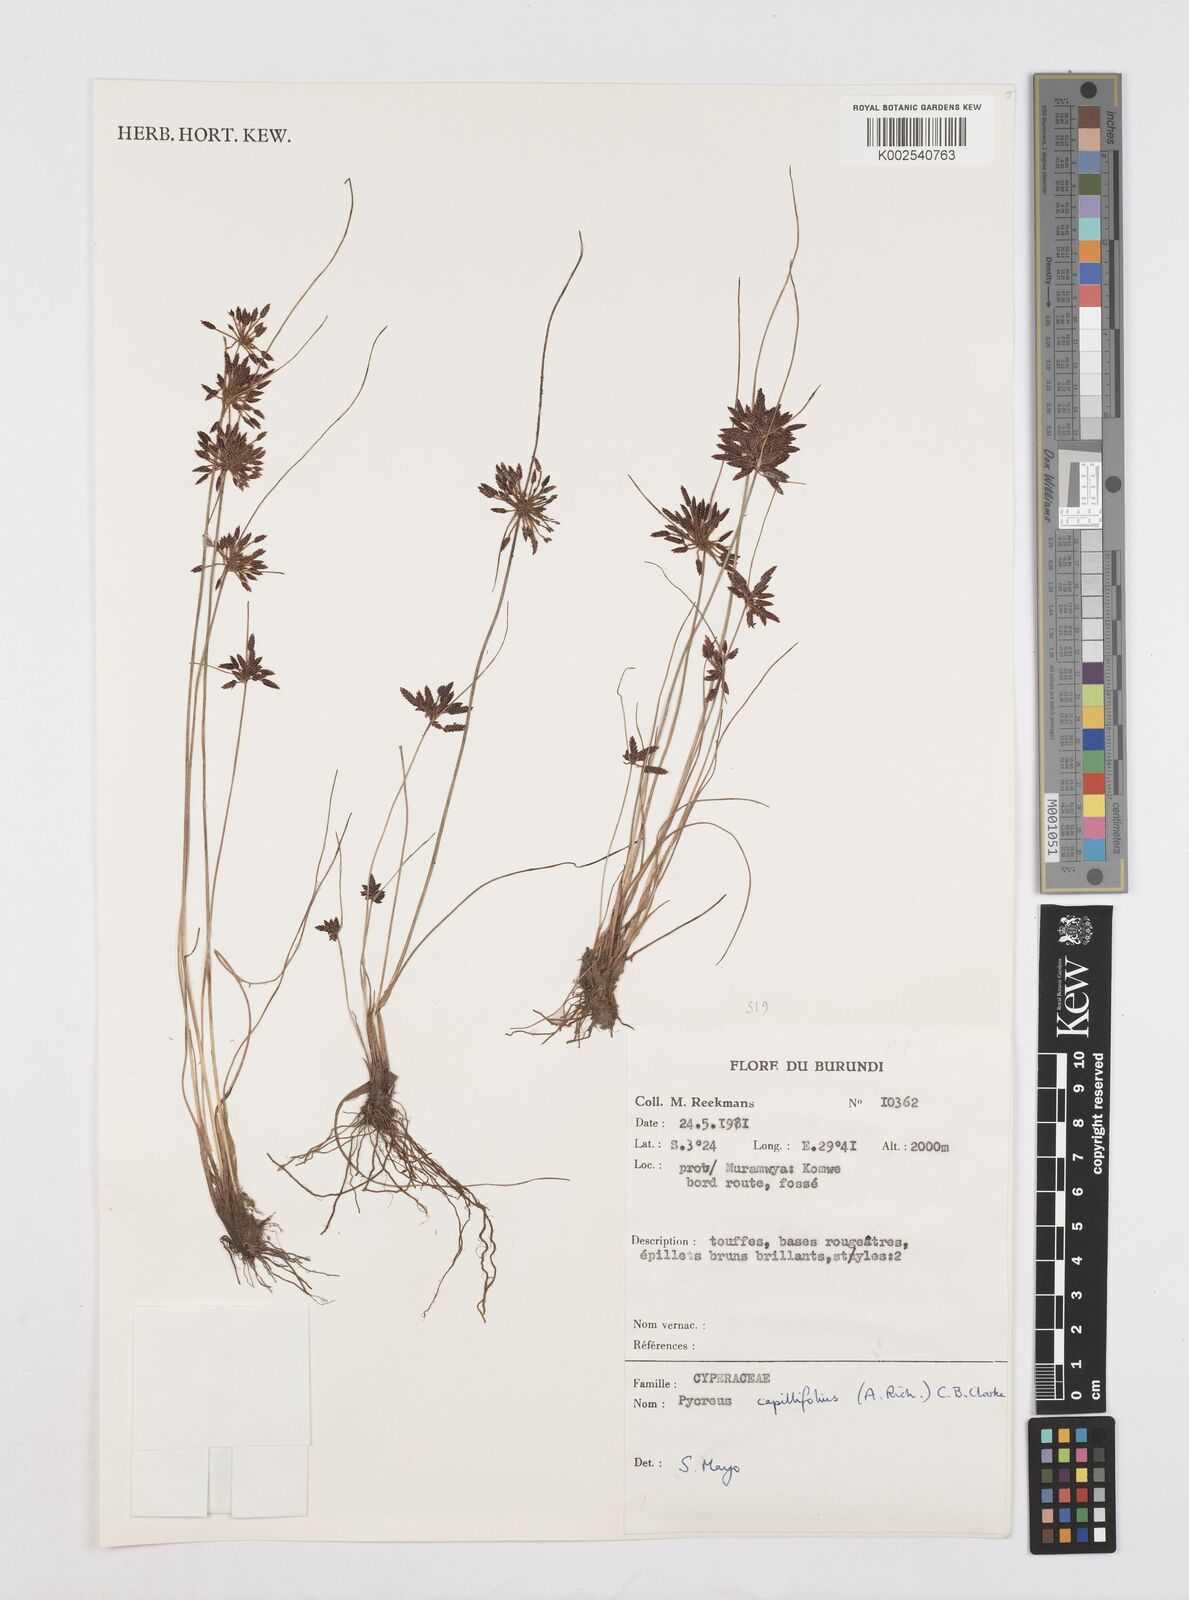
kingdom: Plantae
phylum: Tracheophyta
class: Liliopsida
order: Poales
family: Cyperaceae
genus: Cyperus
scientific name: Cyperus capillifolius
